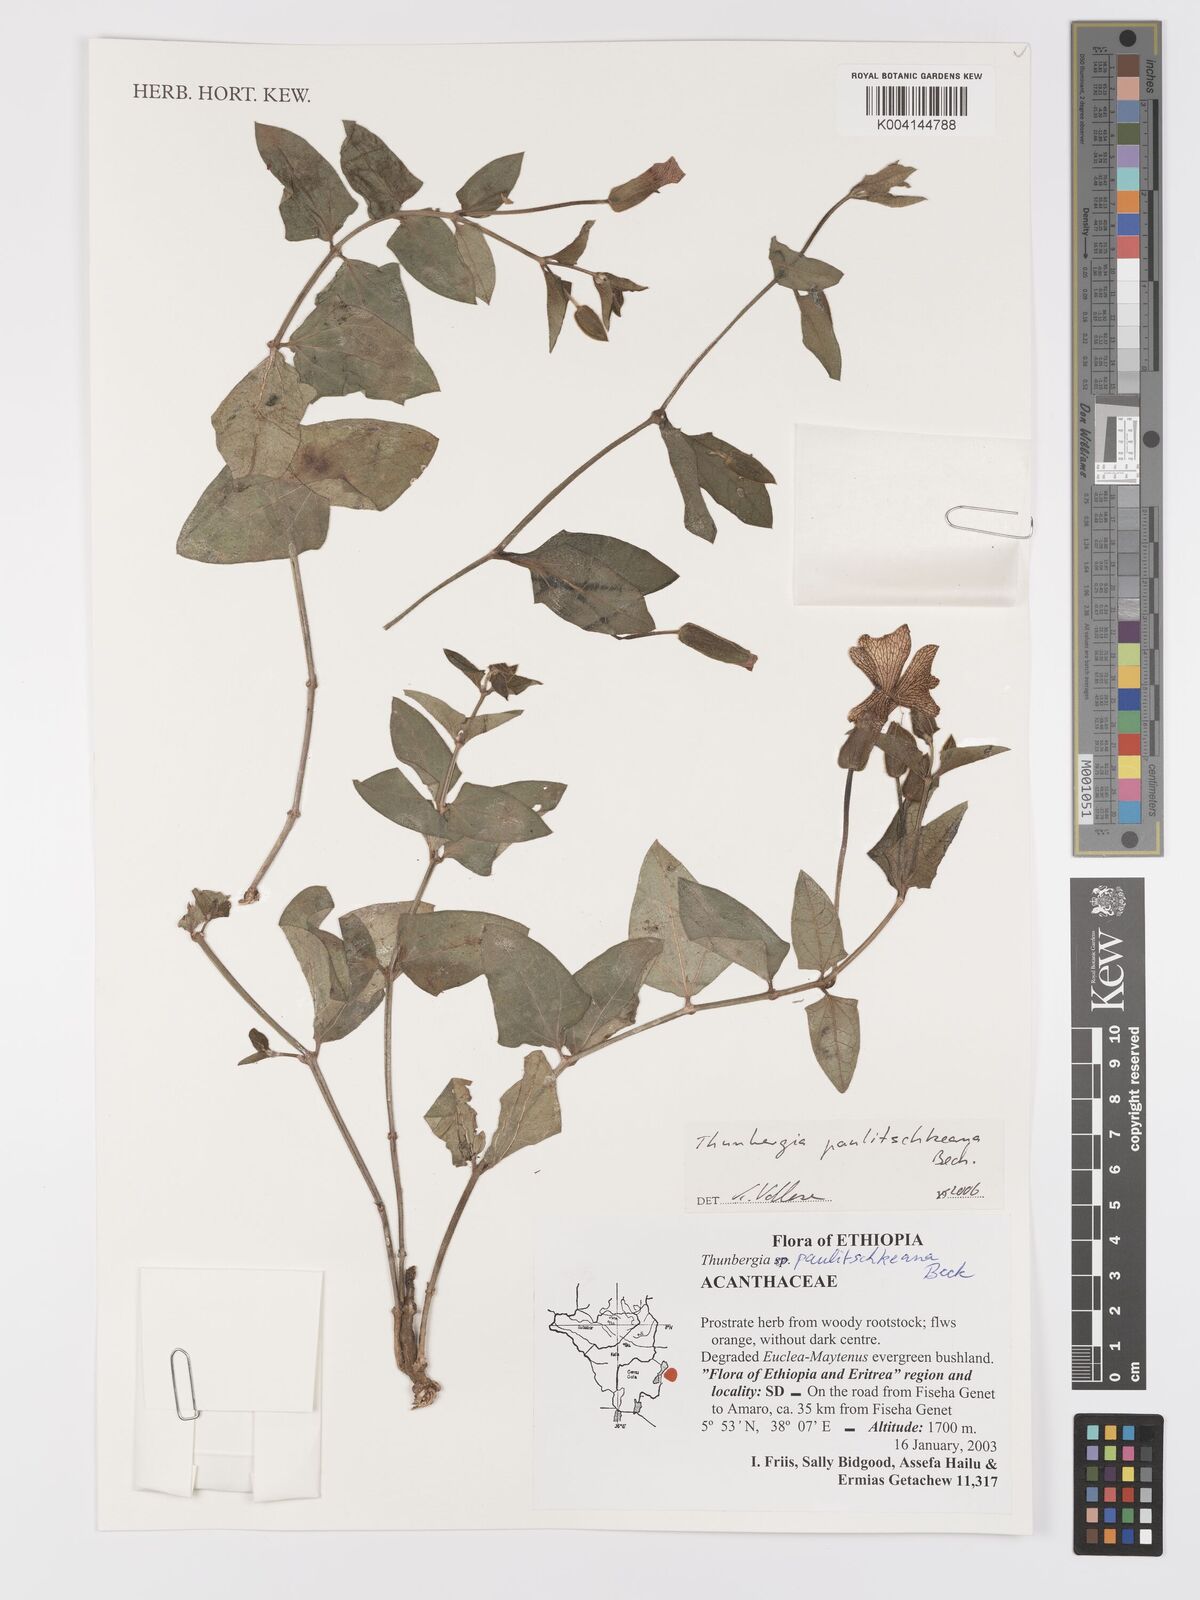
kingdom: Plantae
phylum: Tracheophyta
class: Magnoliopsida
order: Lamiales
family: Acanthaceae
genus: Thunbergia
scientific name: Thunbergia paulitschkeana
